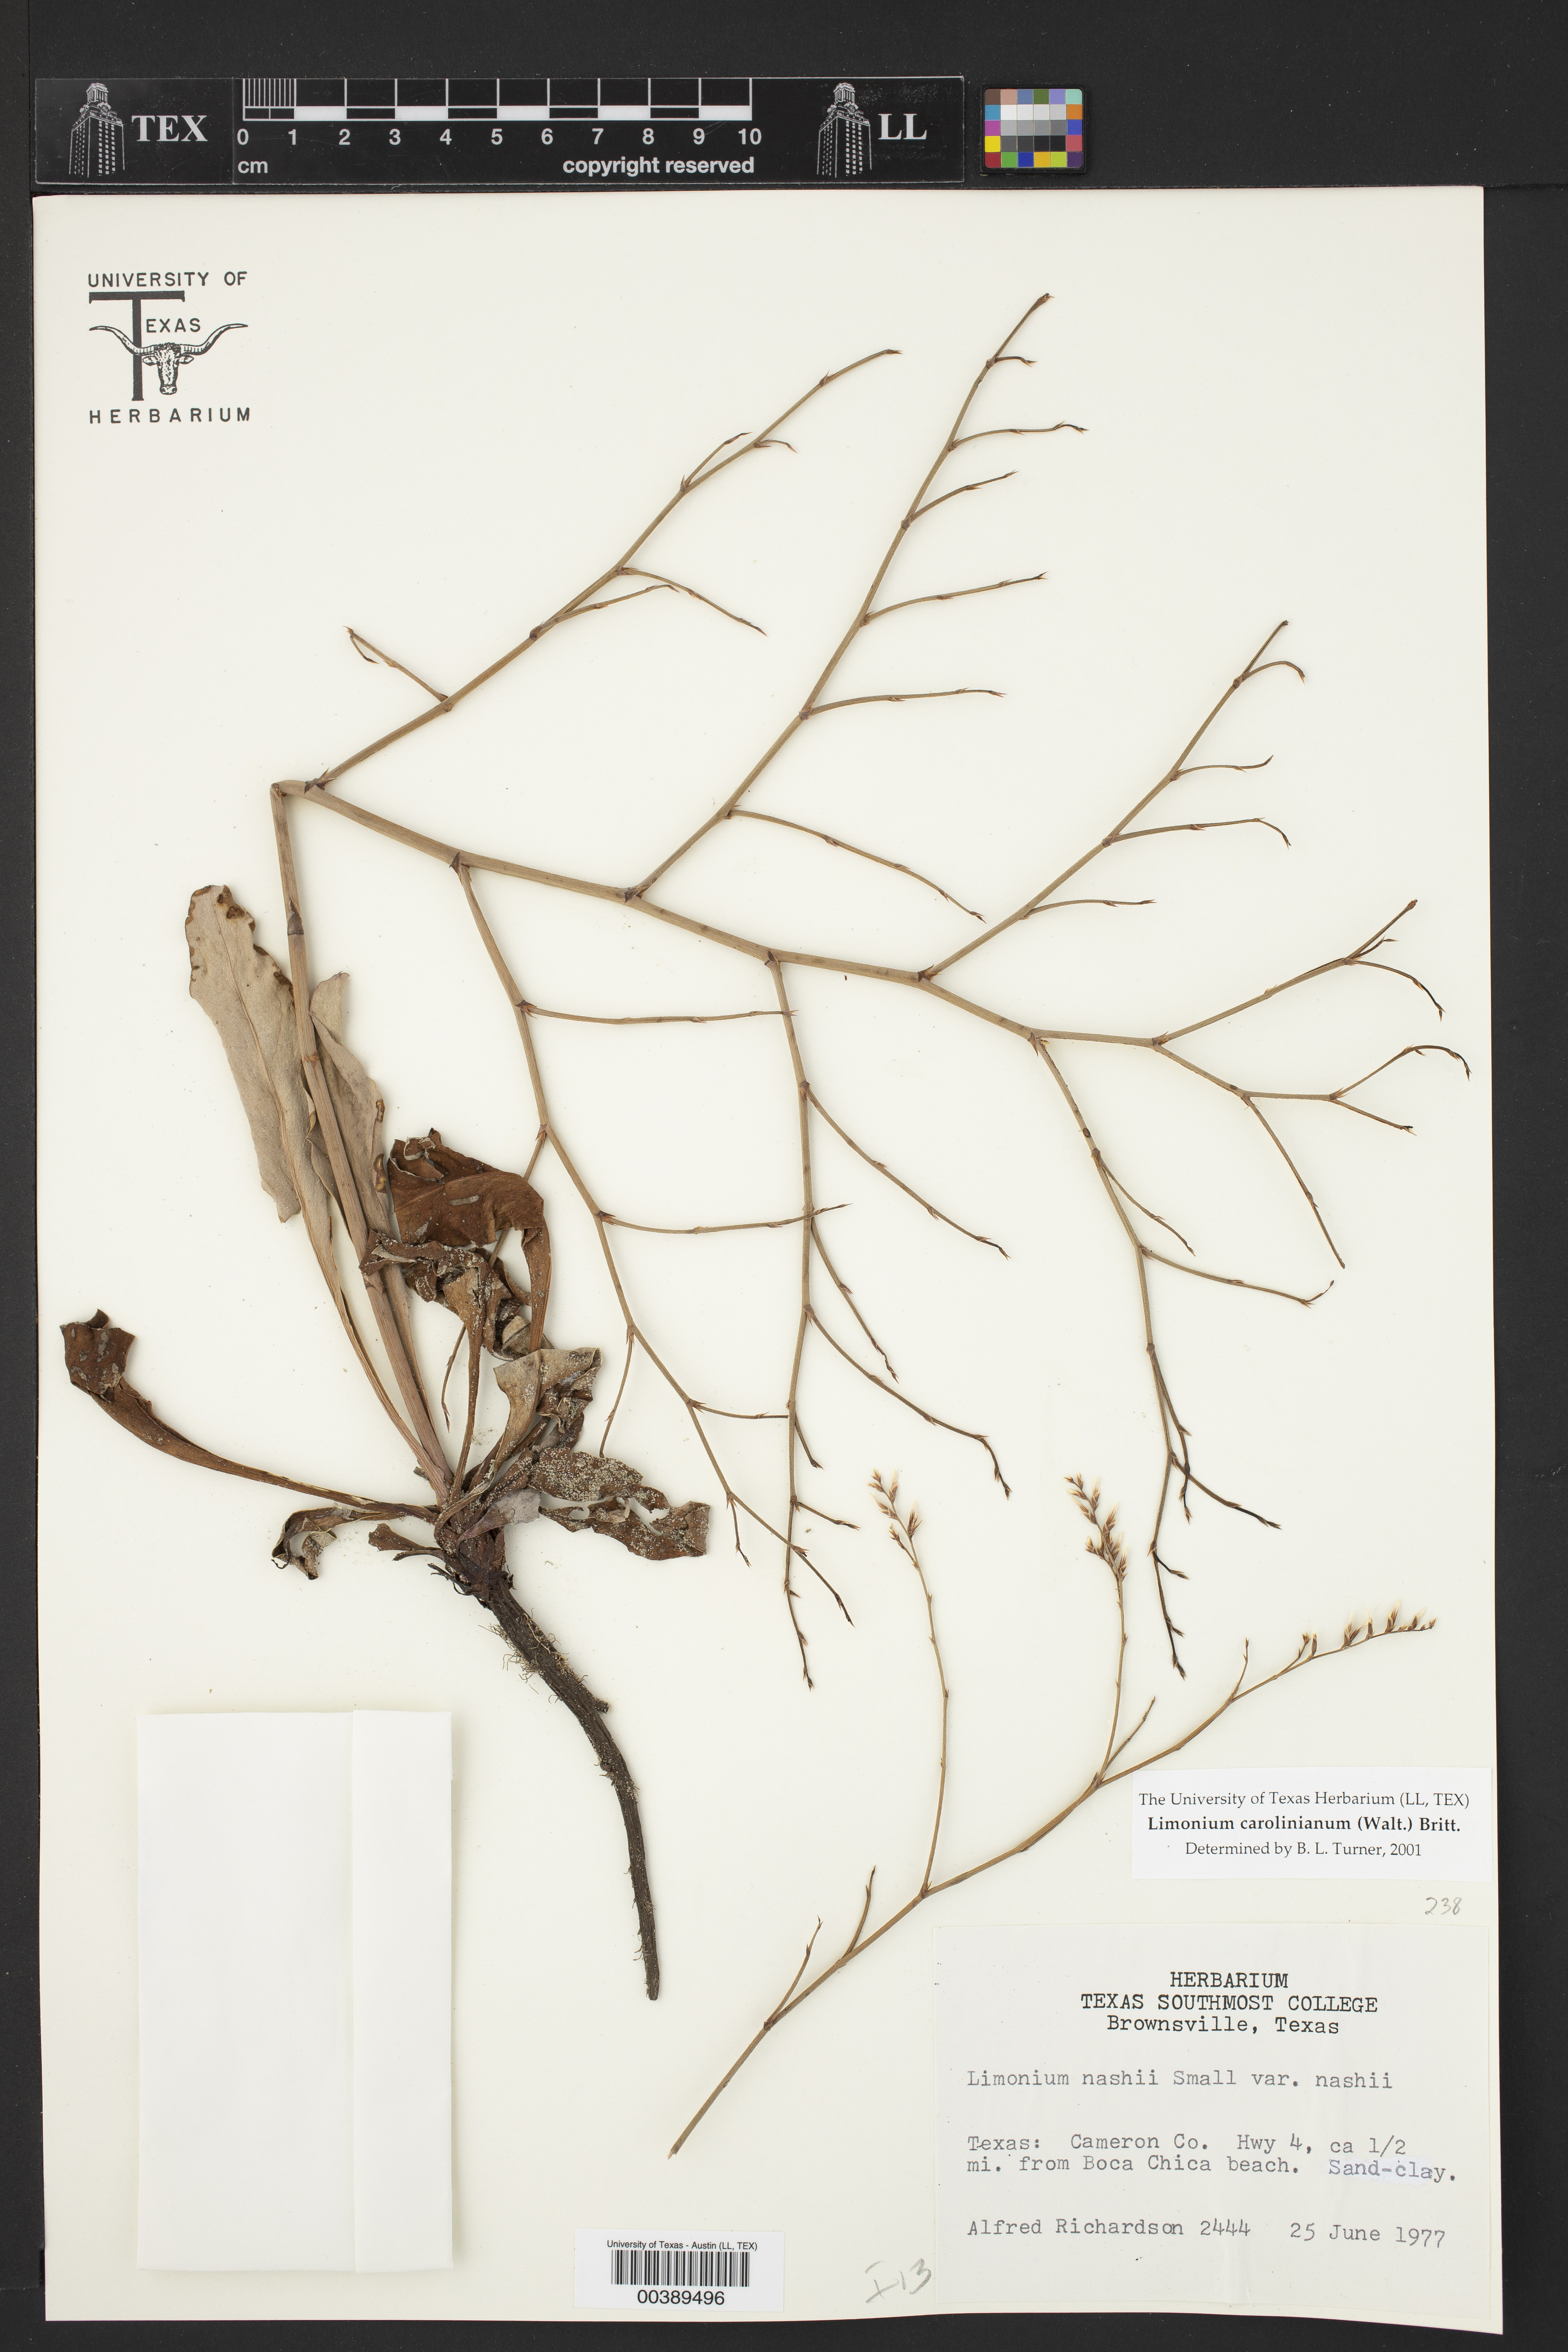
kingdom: Plantae
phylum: Tracheophyta
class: Magnoliopsida
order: Caryophyllales
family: Plumbaginaceae
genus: Limonium
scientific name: Limonium carolinianum
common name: Carolina sea lavender
